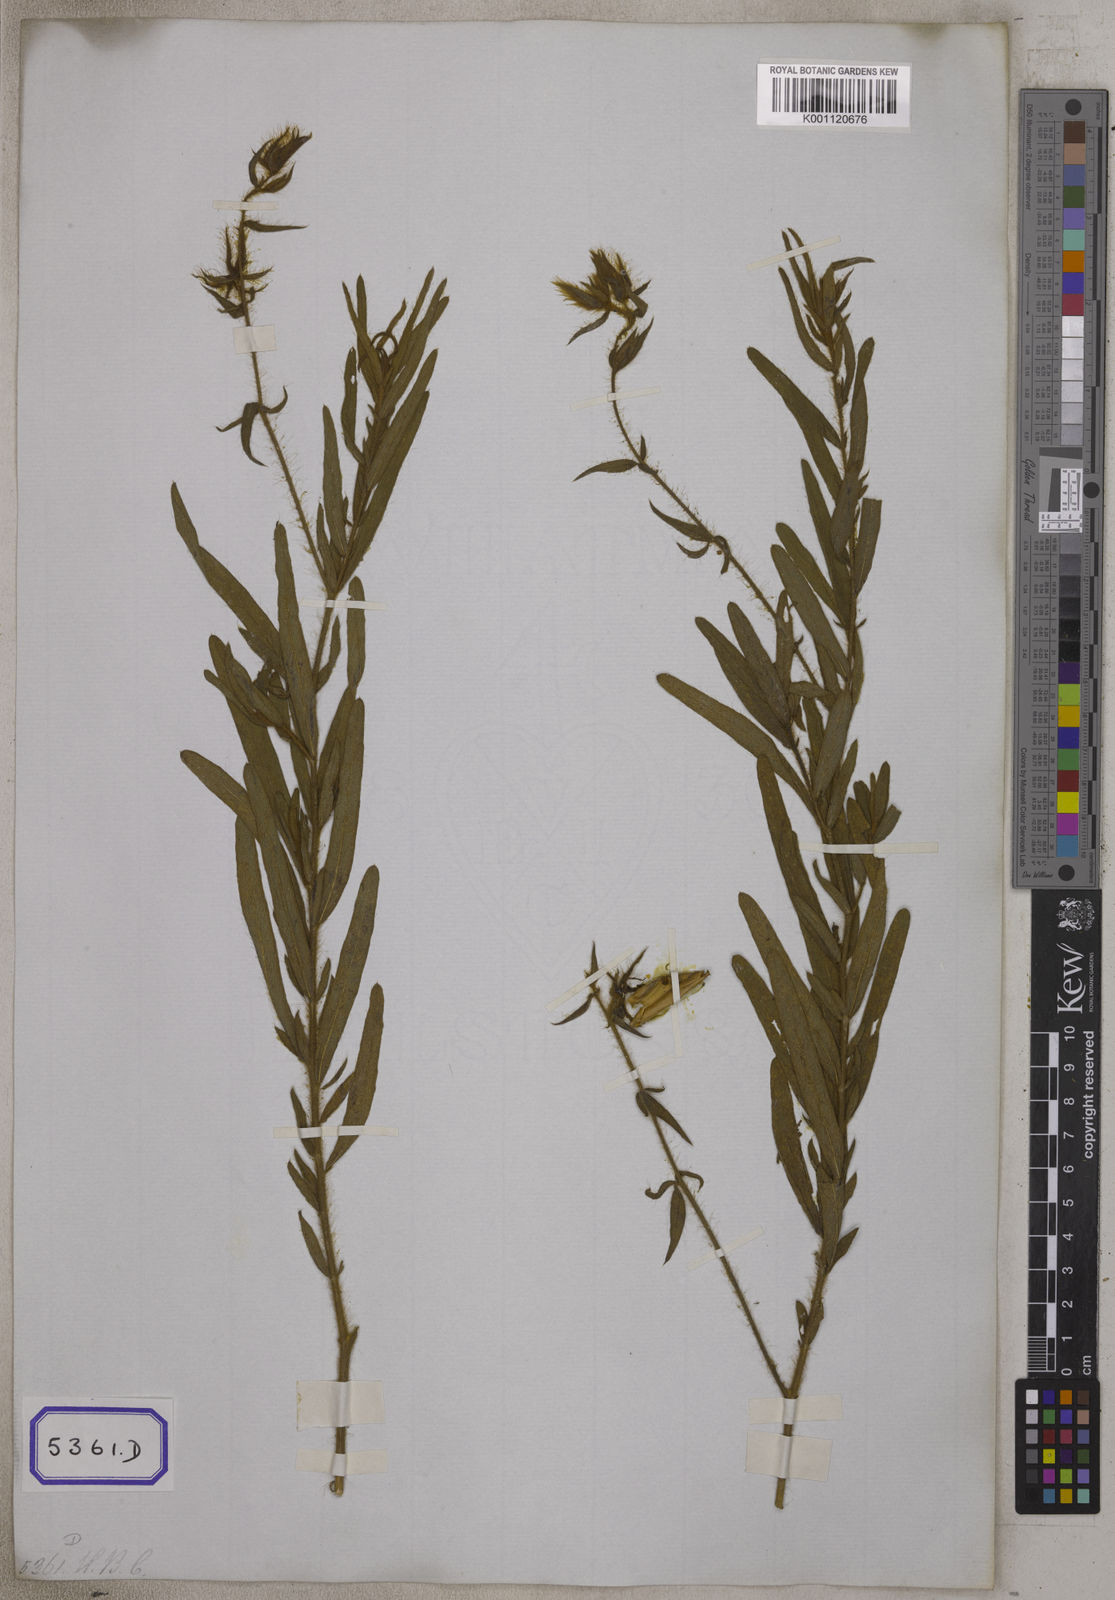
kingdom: Plantae
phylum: Tracheophyta
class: Magnoliopsida
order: Fabales
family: Fabaceae
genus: Crotalaria
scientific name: Crotalaria mysorensis
